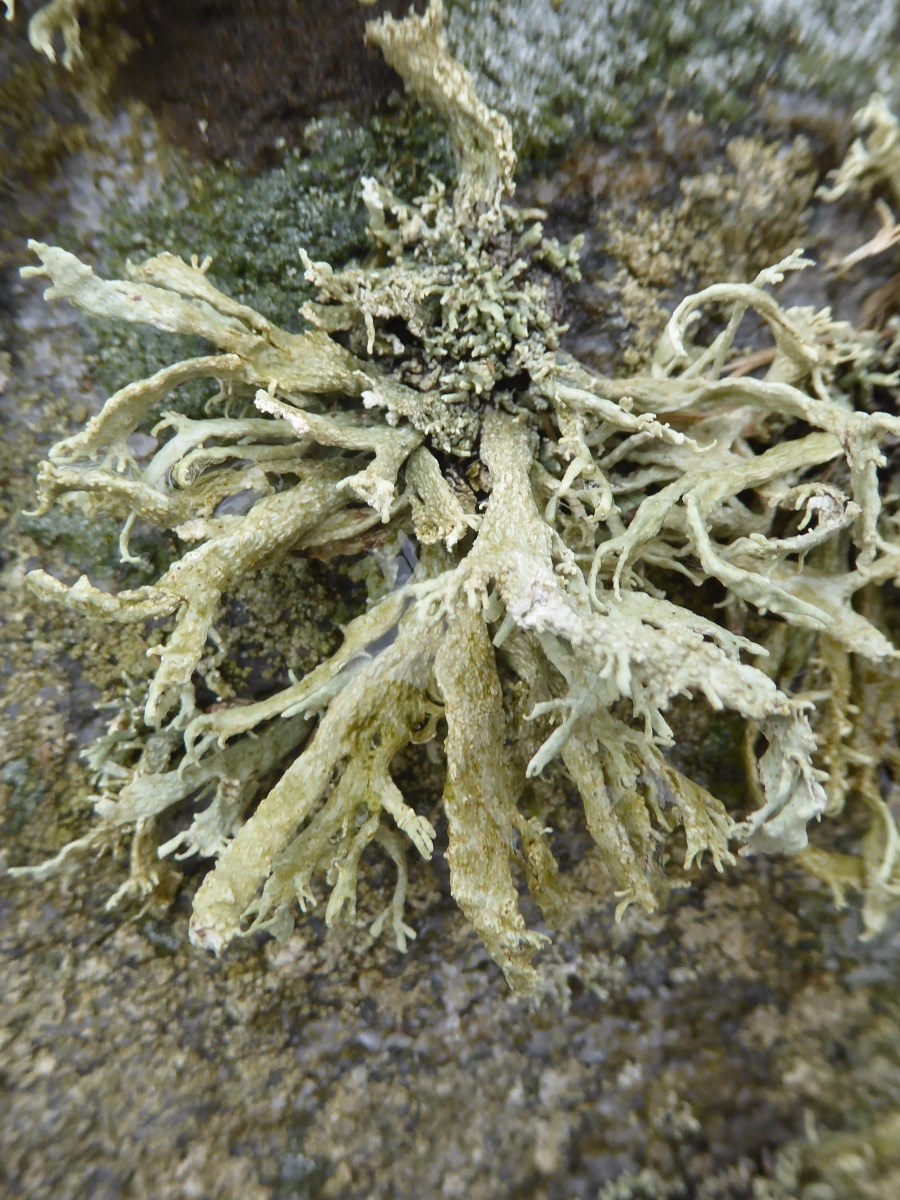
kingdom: Fungi
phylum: Ascomycota
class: Lecanoromycetes
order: Lecanorales
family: Ramalinaceae
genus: Ramalina
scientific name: Ramalina siliquosa
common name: klippe-grenlav
